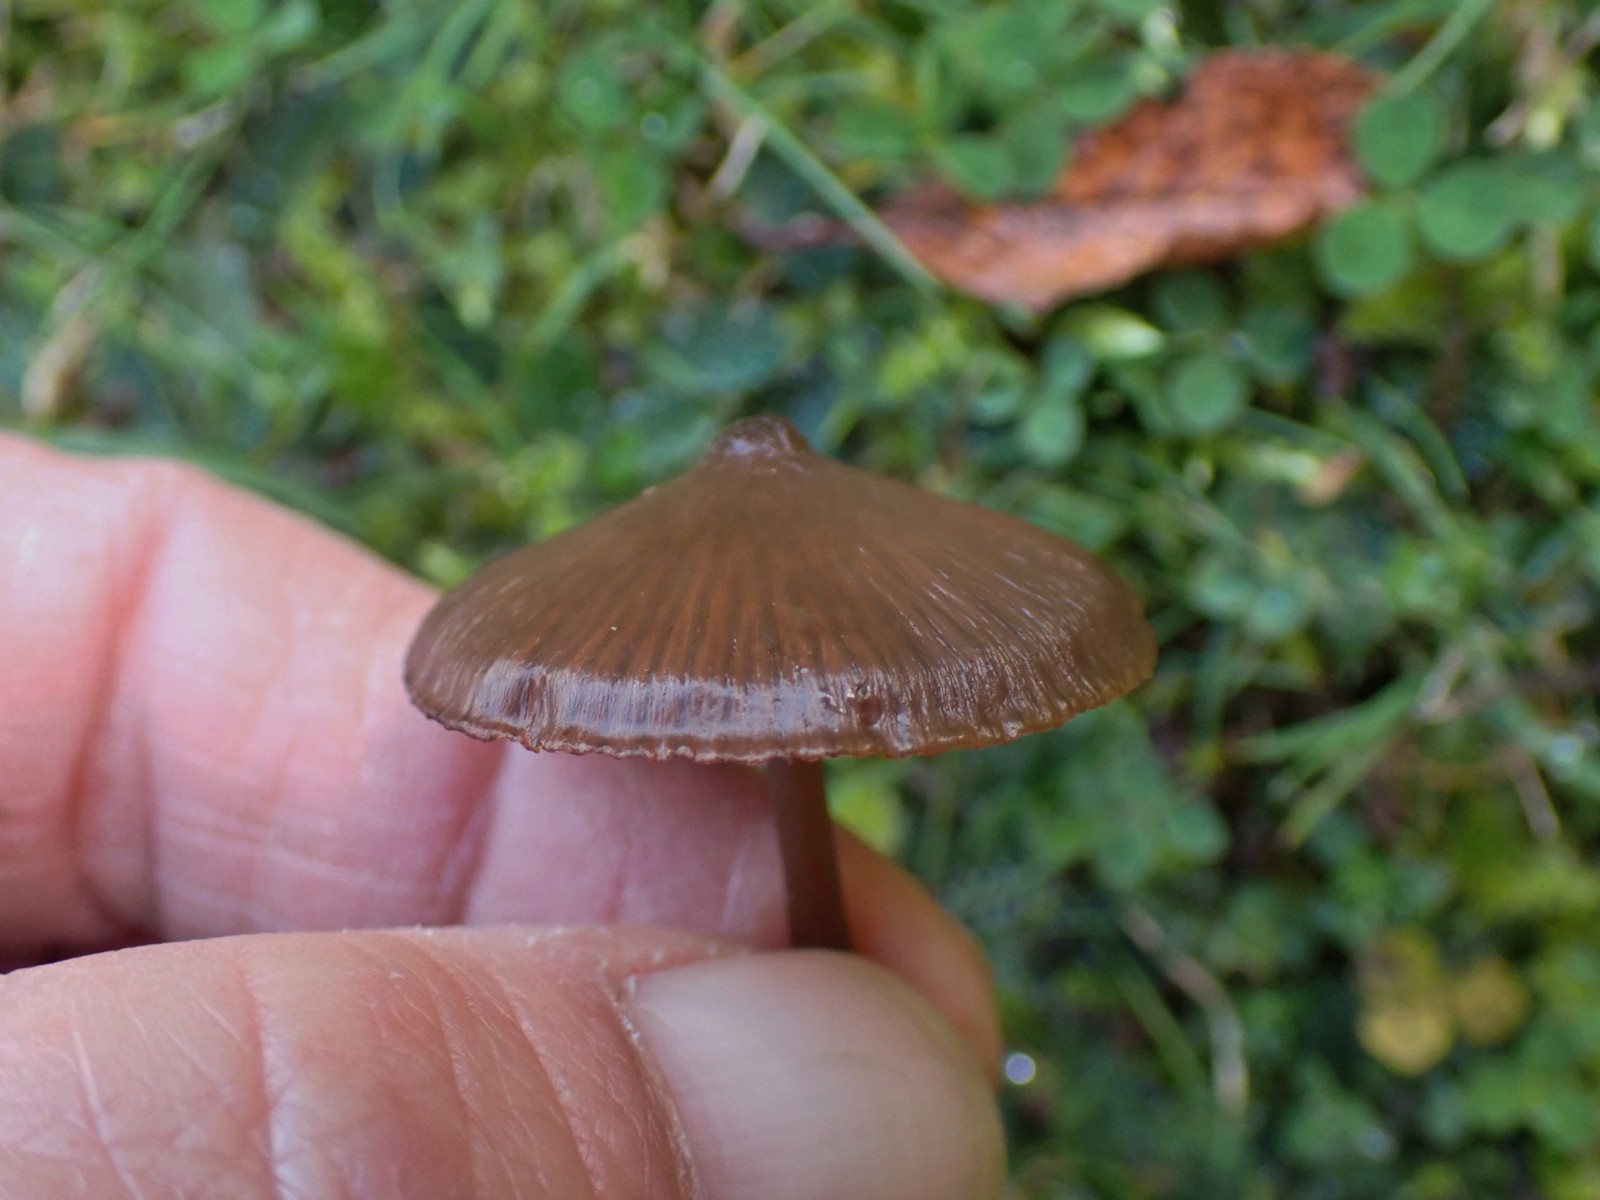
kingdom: Fungi
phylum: Basidiomycota
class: Agaricomycetes
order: Agaricales
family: Entolomataceae
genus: Entoloma
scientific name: Entoloma
